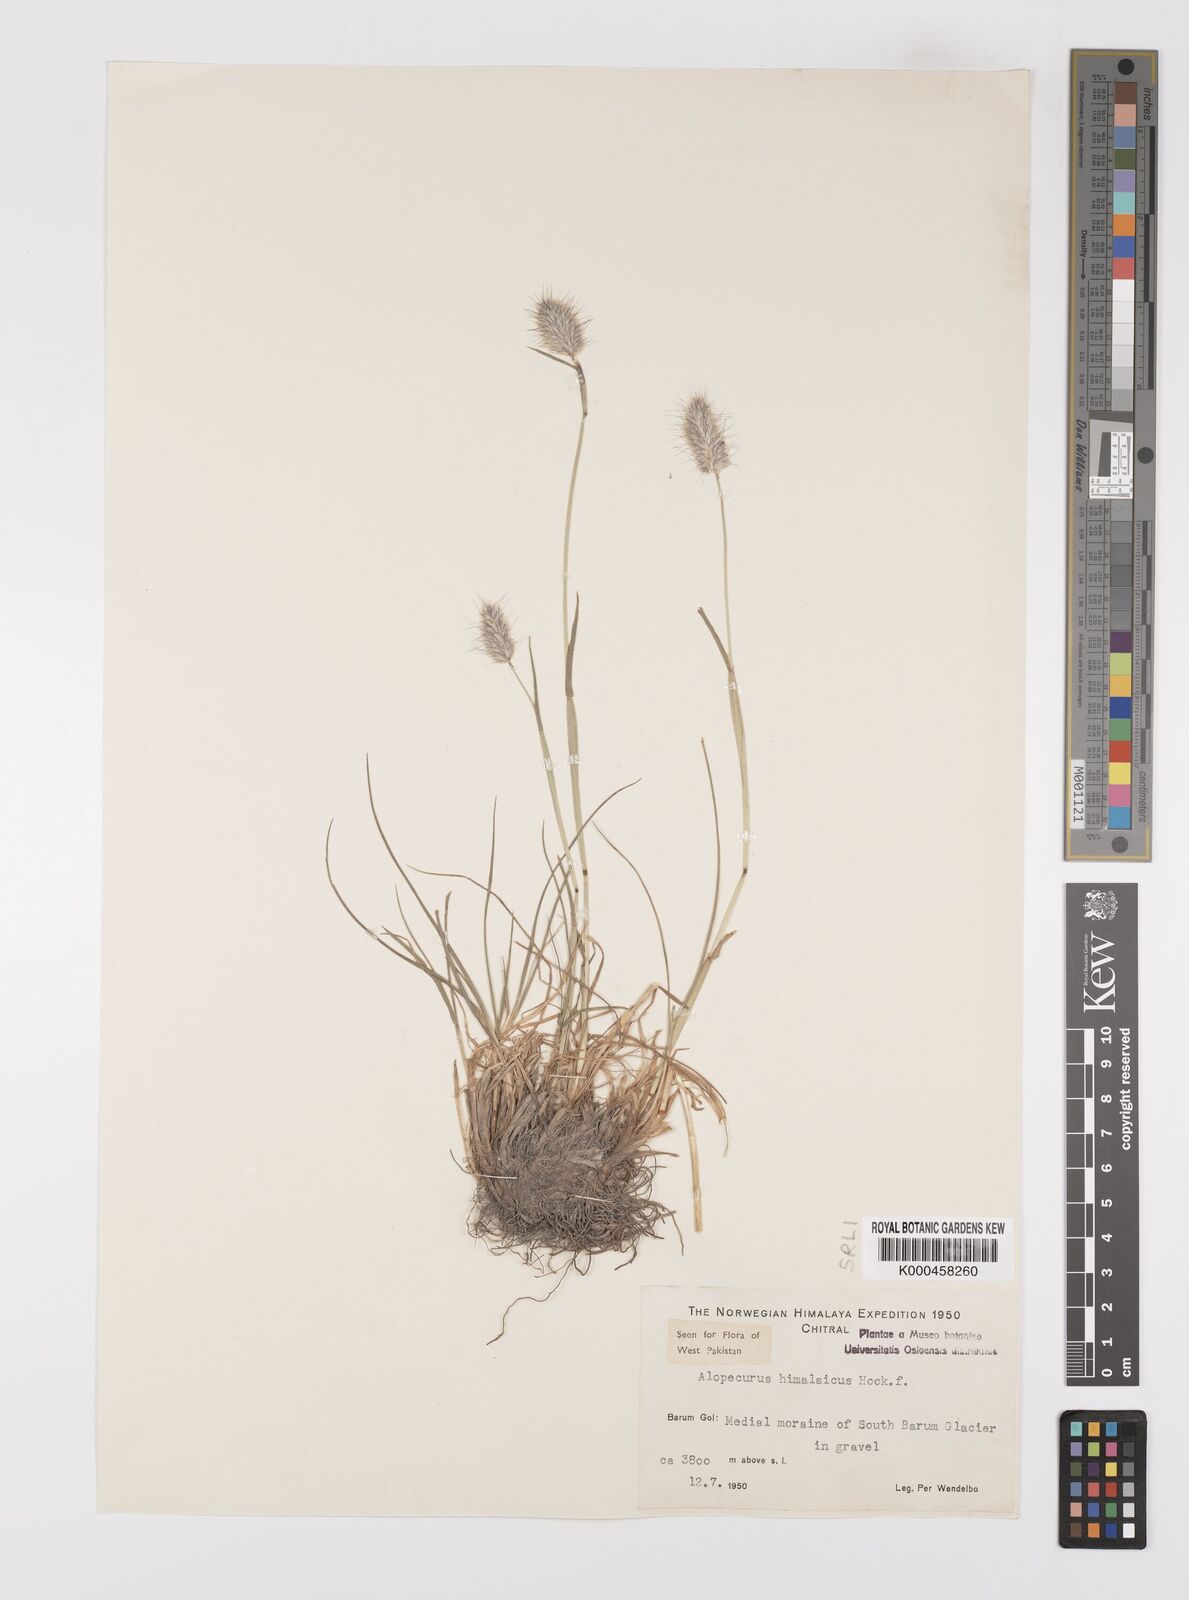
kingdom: Plantae
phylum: Tracheophyta
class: Liliopsida
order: Poales
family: Poaceae
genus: Alopecurus
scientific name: Alopecurus himalaicus
